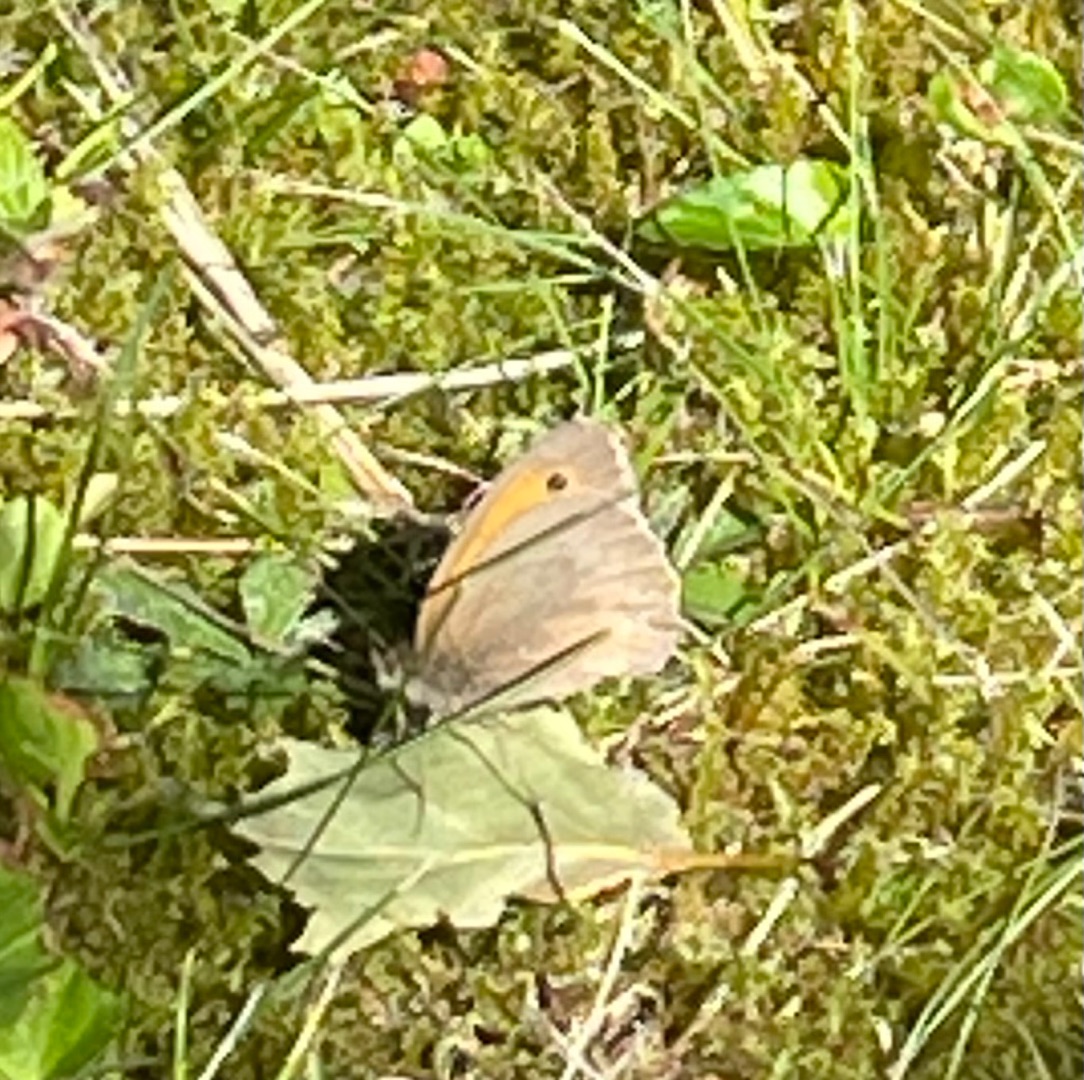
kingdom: Animalia
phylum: Arthropoda
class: Insecta
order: Lepidoptera
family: Nymphalidae
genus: Maniola
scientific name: Maniola jurtina
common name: Græsrandøje
